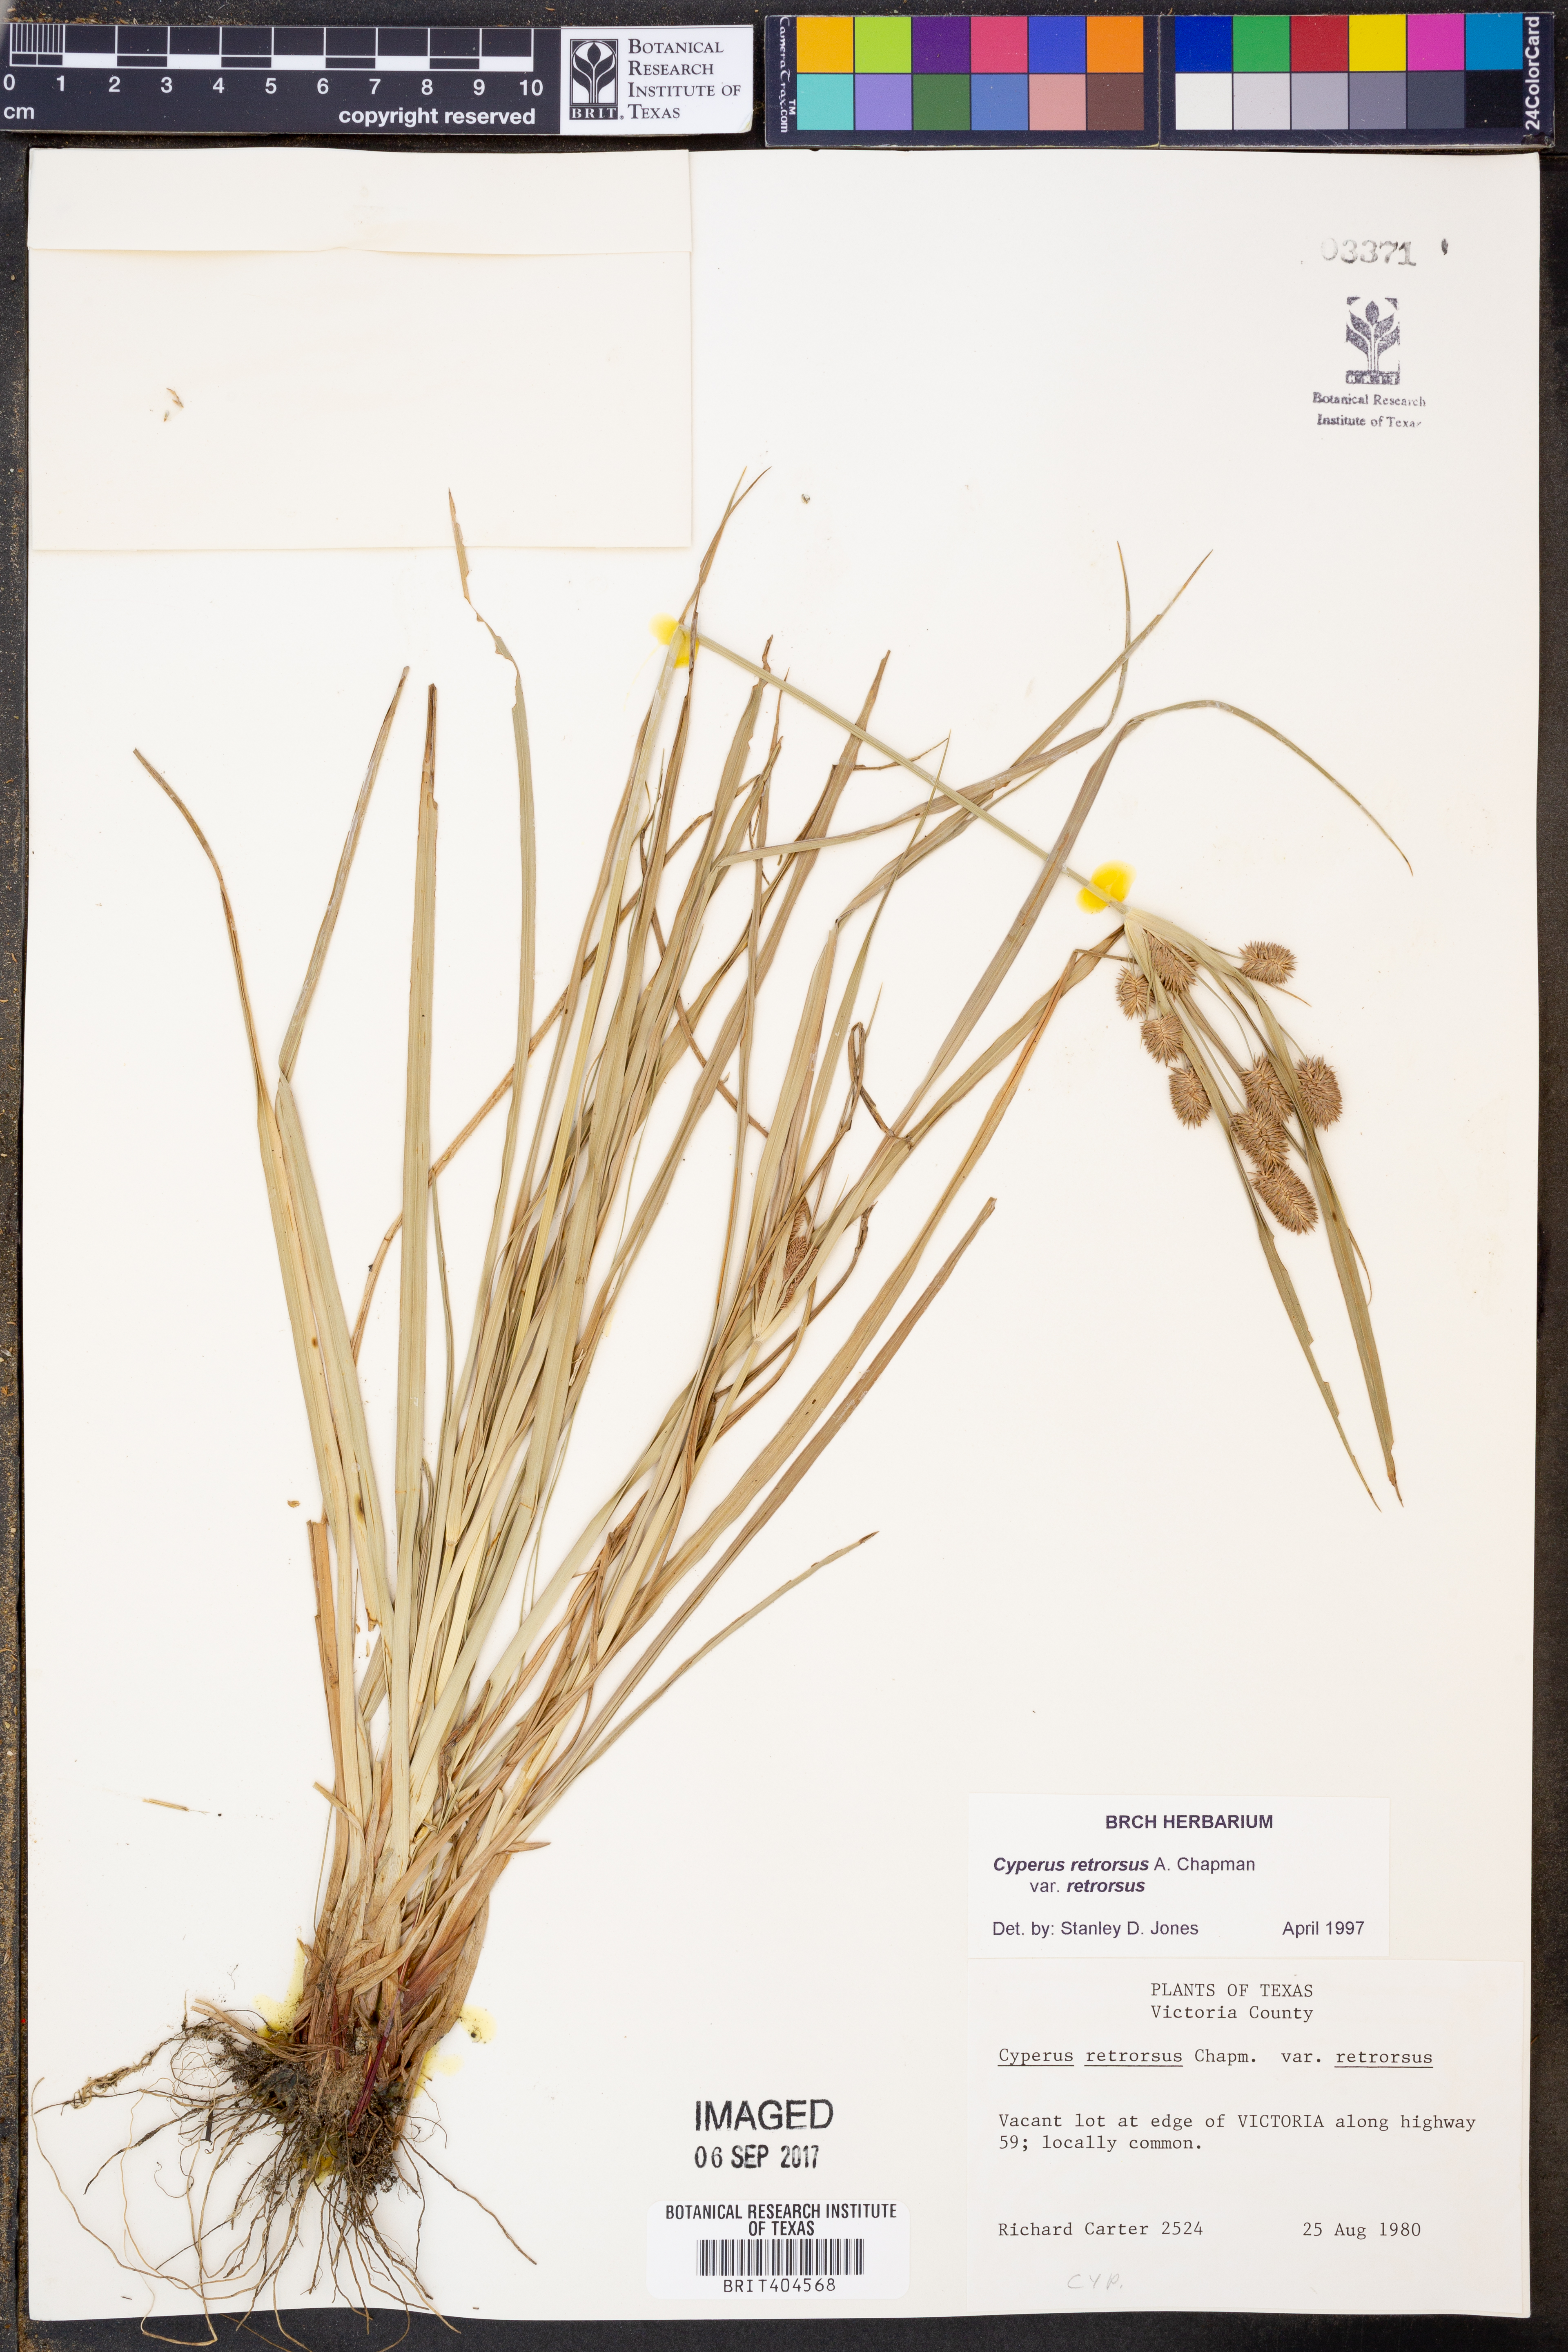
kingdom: Plantae
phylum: Tracheophyta
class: Liliopsida
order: Poales
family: Cyperaceae
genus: Cyperus
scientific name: Cyperus retrorsus
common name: Pinebarren flat sedge
